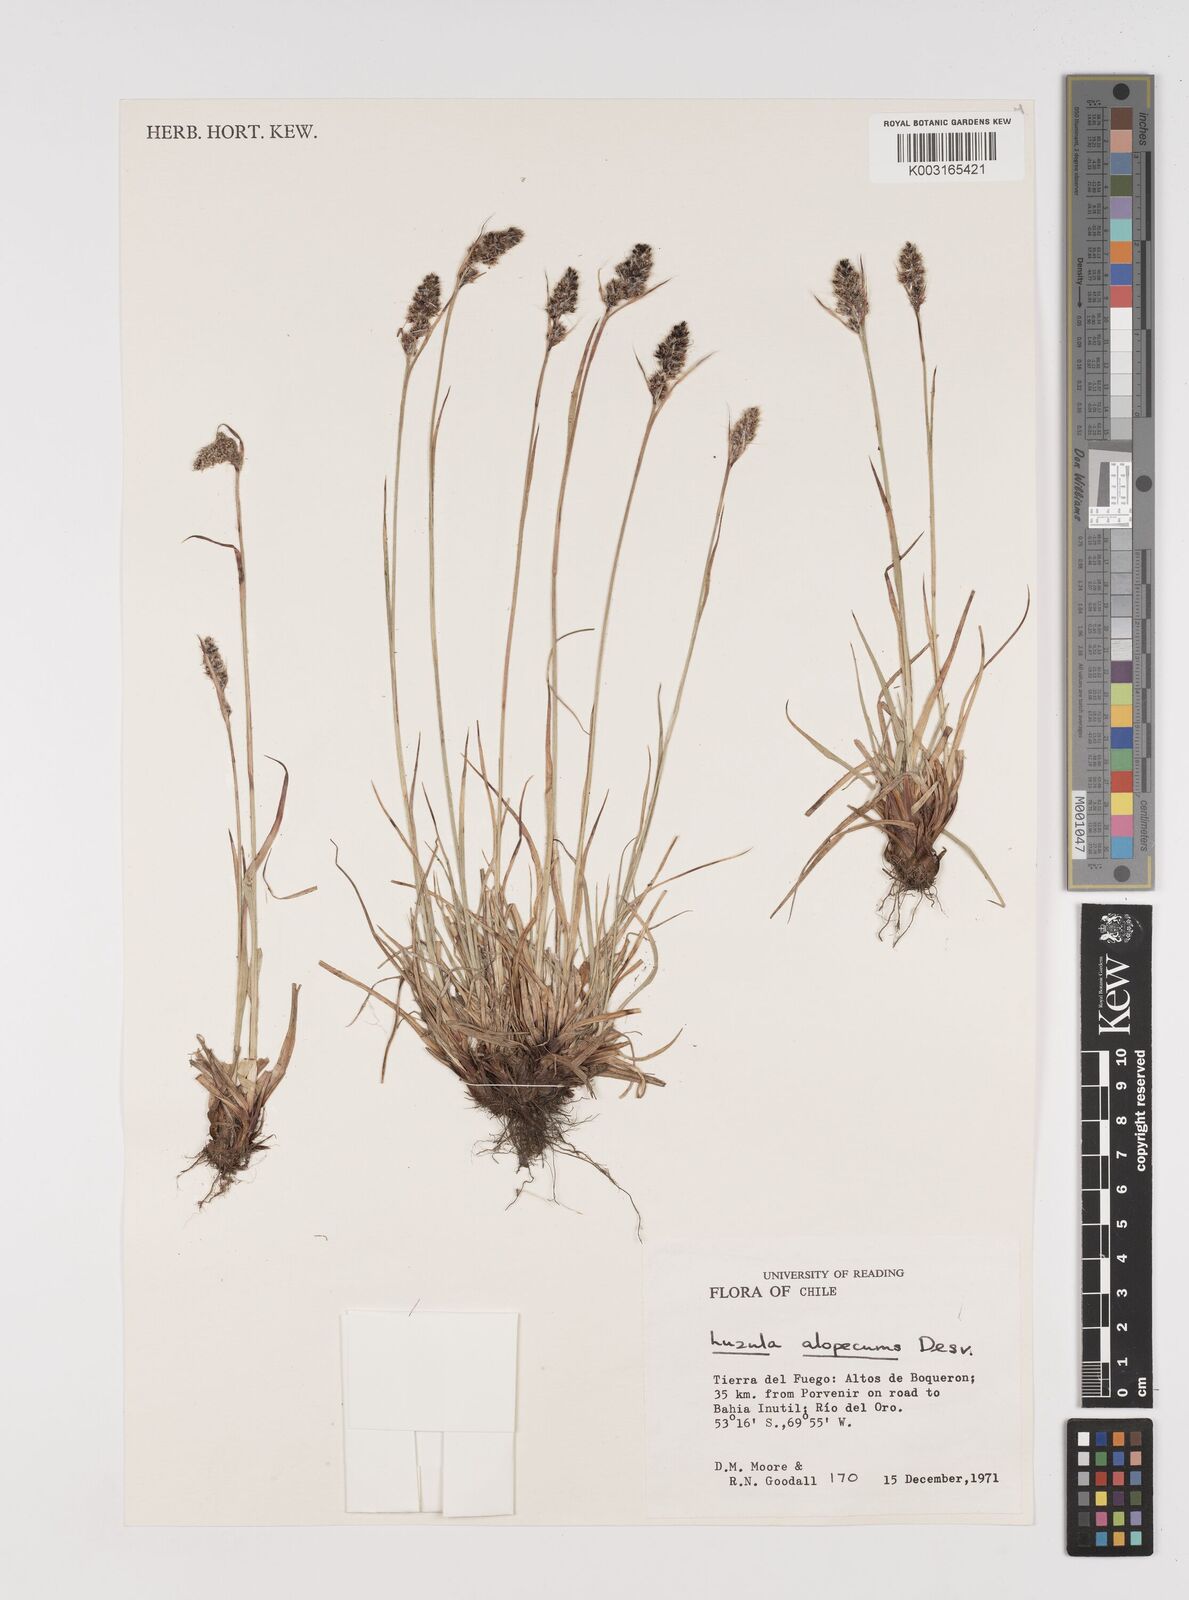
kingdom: Plantae
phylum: Tracheophyta
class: Liliopsida
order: Poales
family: Juncaceae
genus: Luzula
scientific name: Luzula alopecurus
